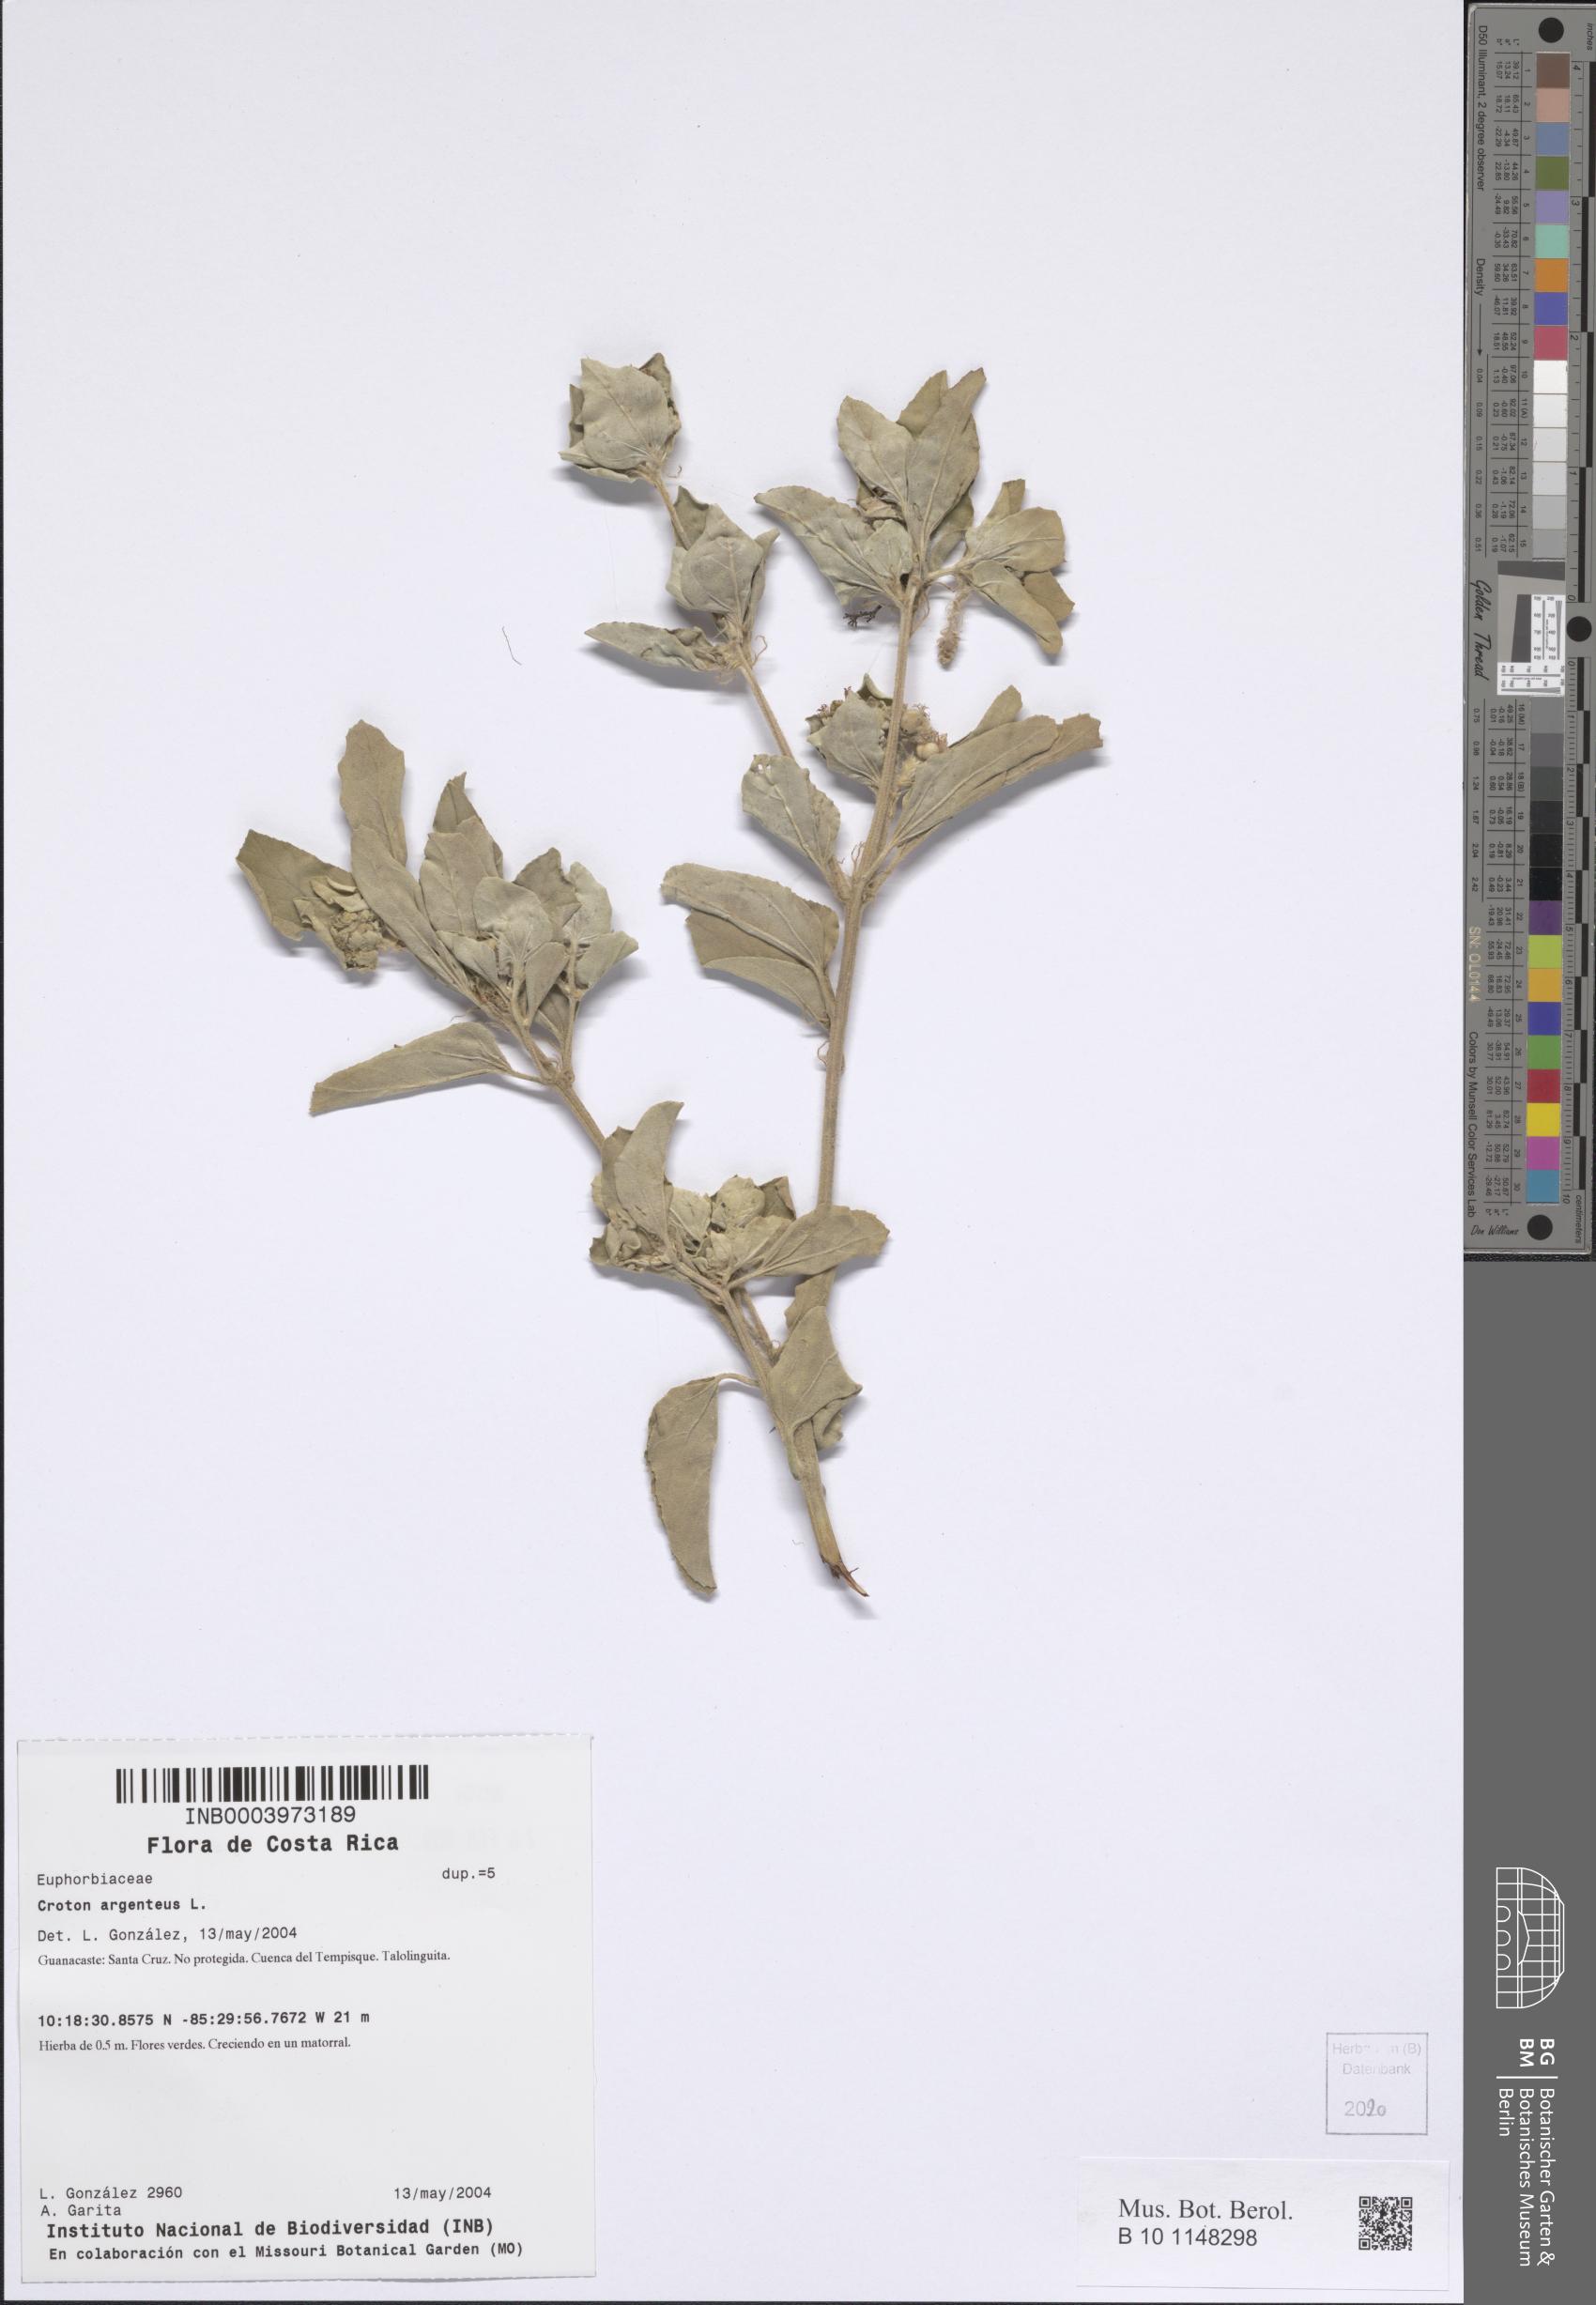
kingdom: Plantae
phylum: Tracheophyta
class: Magnoliopsida
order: Malpighiales
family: Euphorbiaceae
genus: Croton
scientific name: Croton argenteus
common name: Silver july croton
